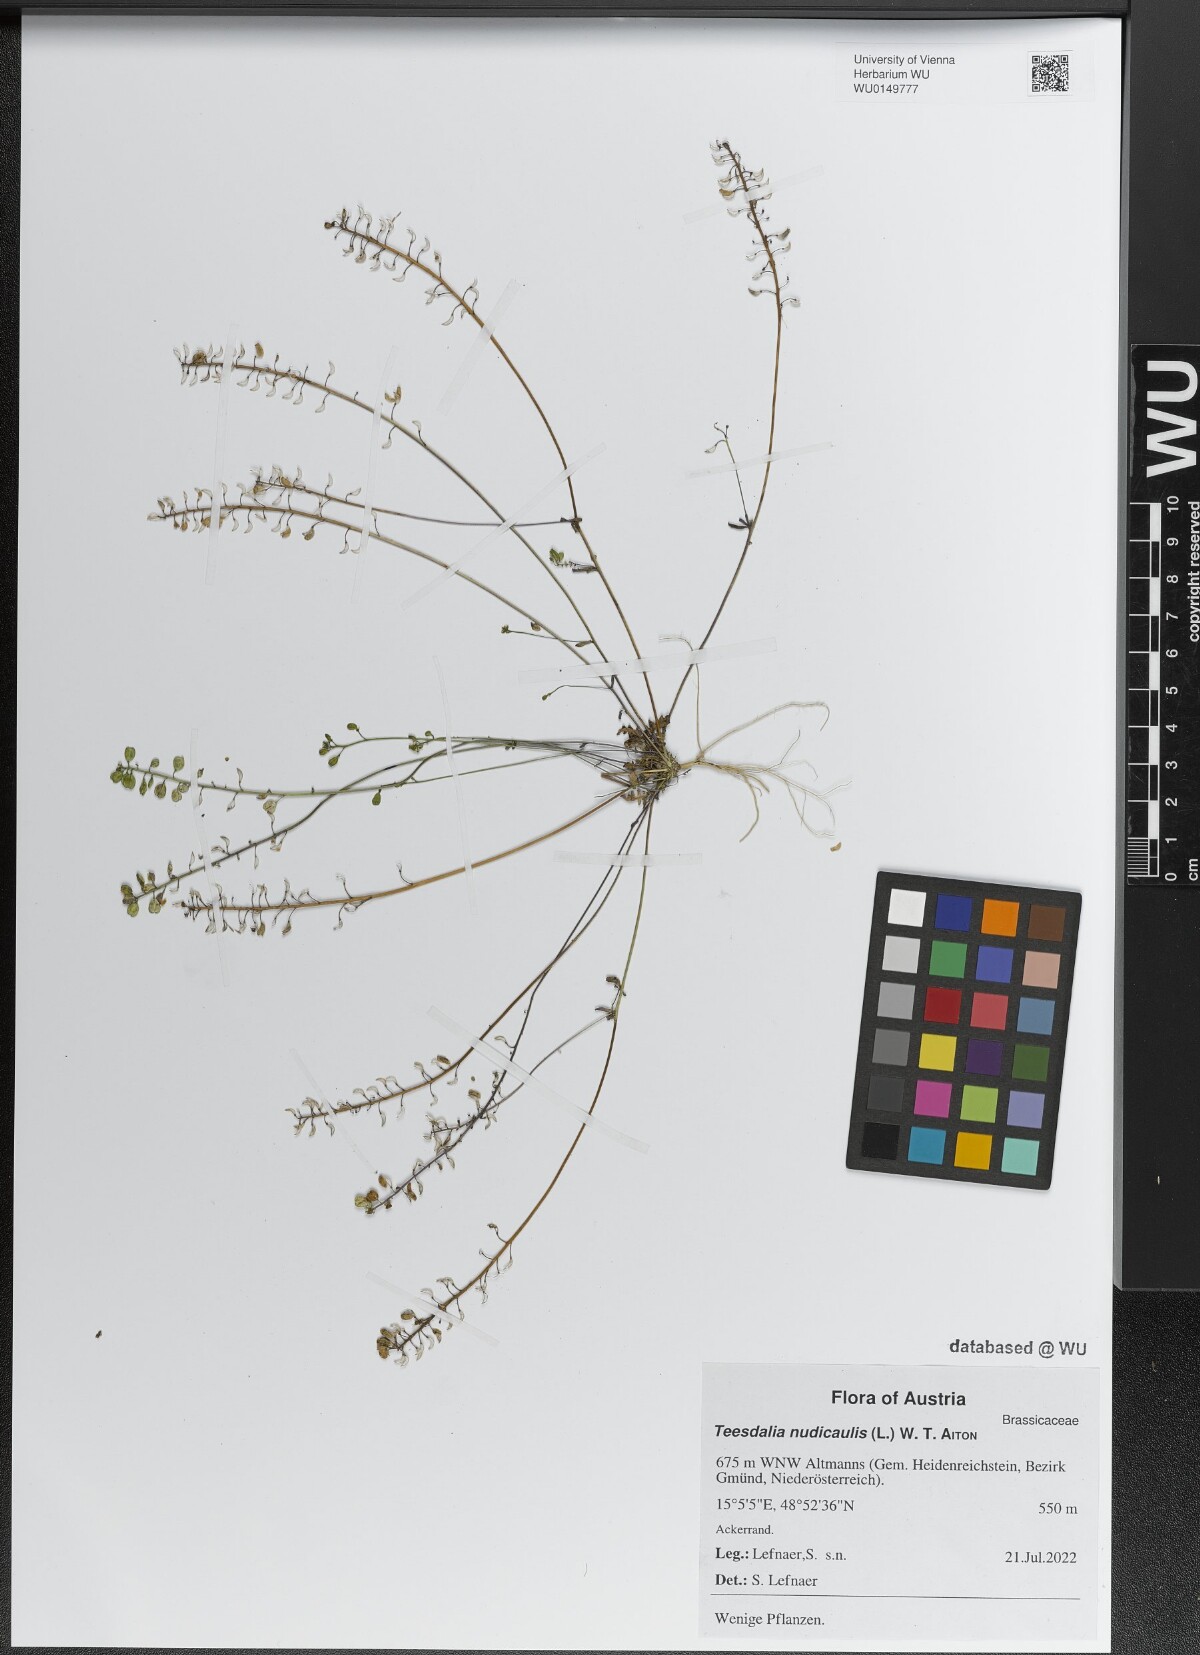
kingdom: Plantae
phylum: Tracheophyta
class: Magnoliopsida
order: Brassicales
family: Brassicaceae
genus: Teesdalia
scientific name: Teesdalia nudicaulis
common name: Shepherd's cress
